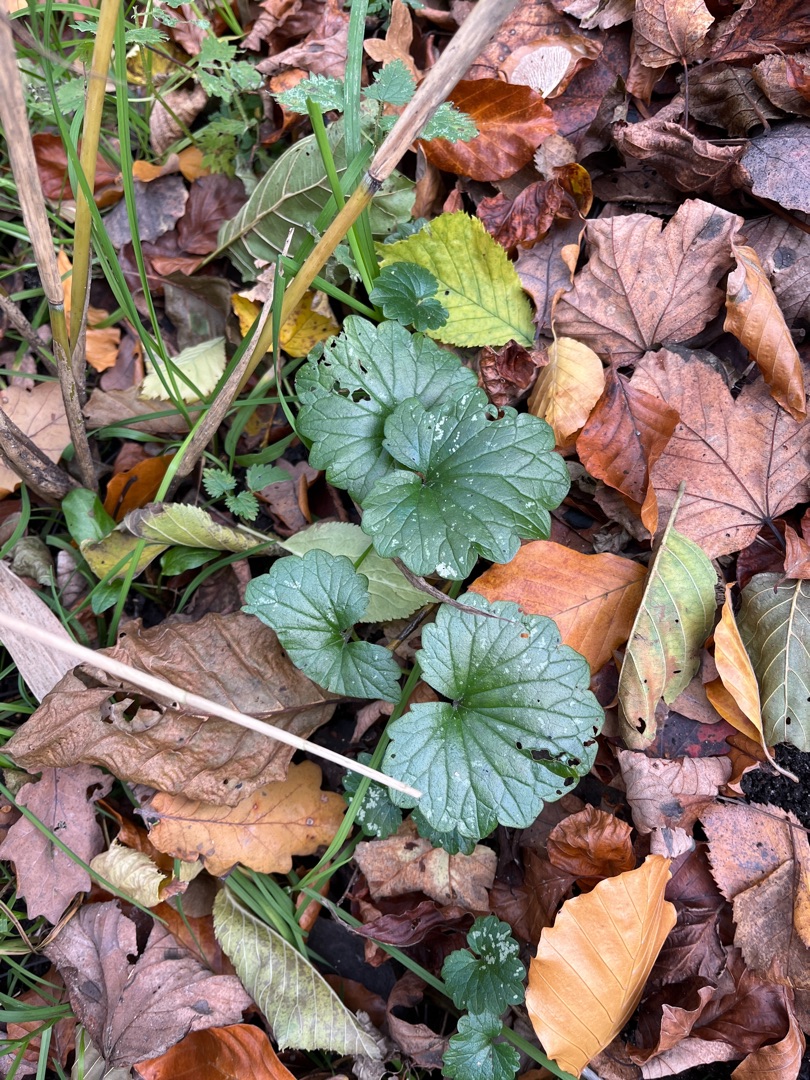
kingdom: Plantae
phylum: Tracheophyta
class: Magnoliopsida
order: Lamiales
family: Lamiaceae
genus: Glechoma
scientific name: Glechoma hederacea
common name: Korsknap
